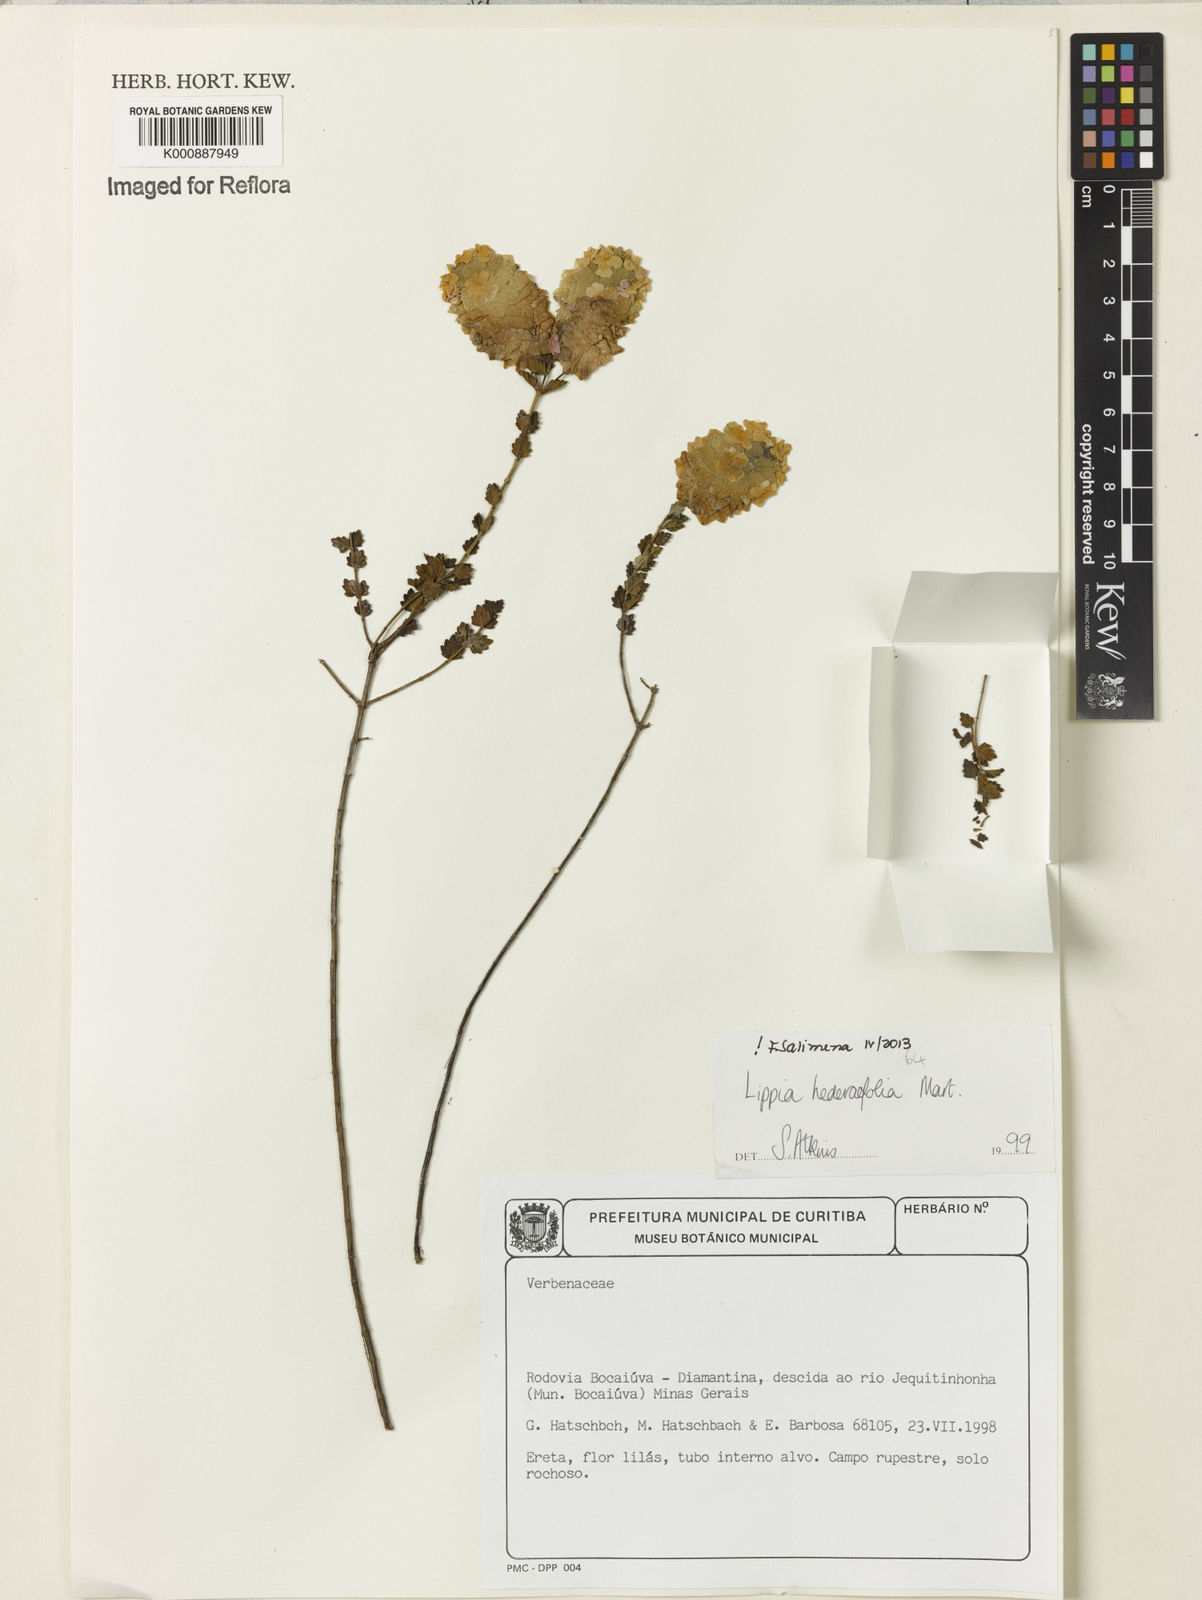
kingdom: Plantae
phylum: Tracheophyta
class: Magnoliopsida
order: Lamiales
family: Verbenaceae
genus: Lippia
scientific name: Lippia hederifolia
